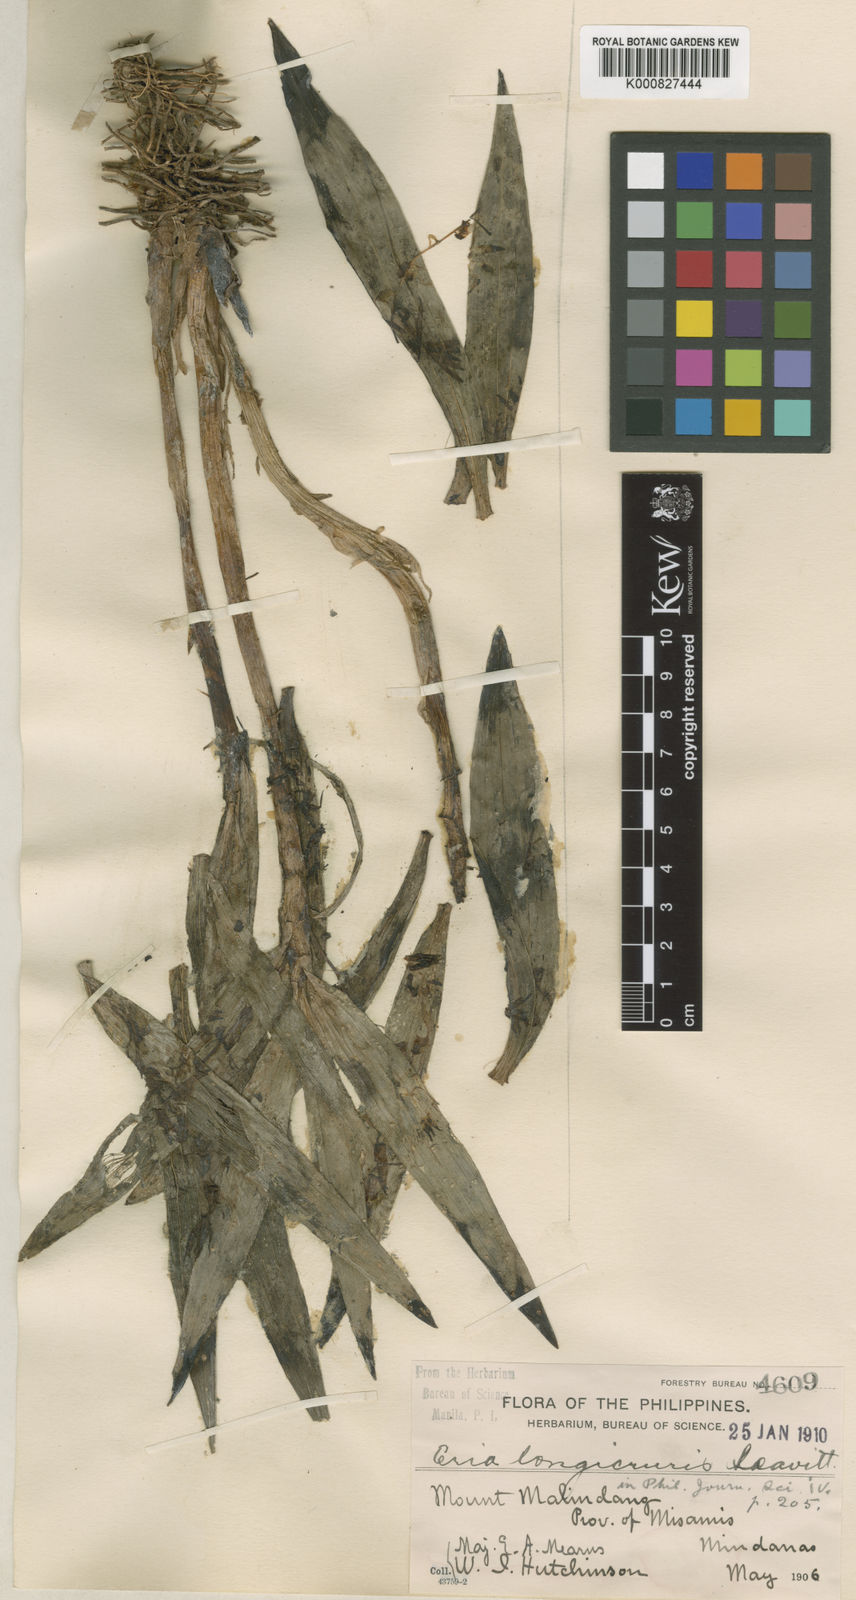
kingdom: Plantae
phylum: Tracheophyta
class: Liliopsida
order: Asparagales
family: Orchidaceae
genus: Pinalia
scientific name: Pinalia longicruris
